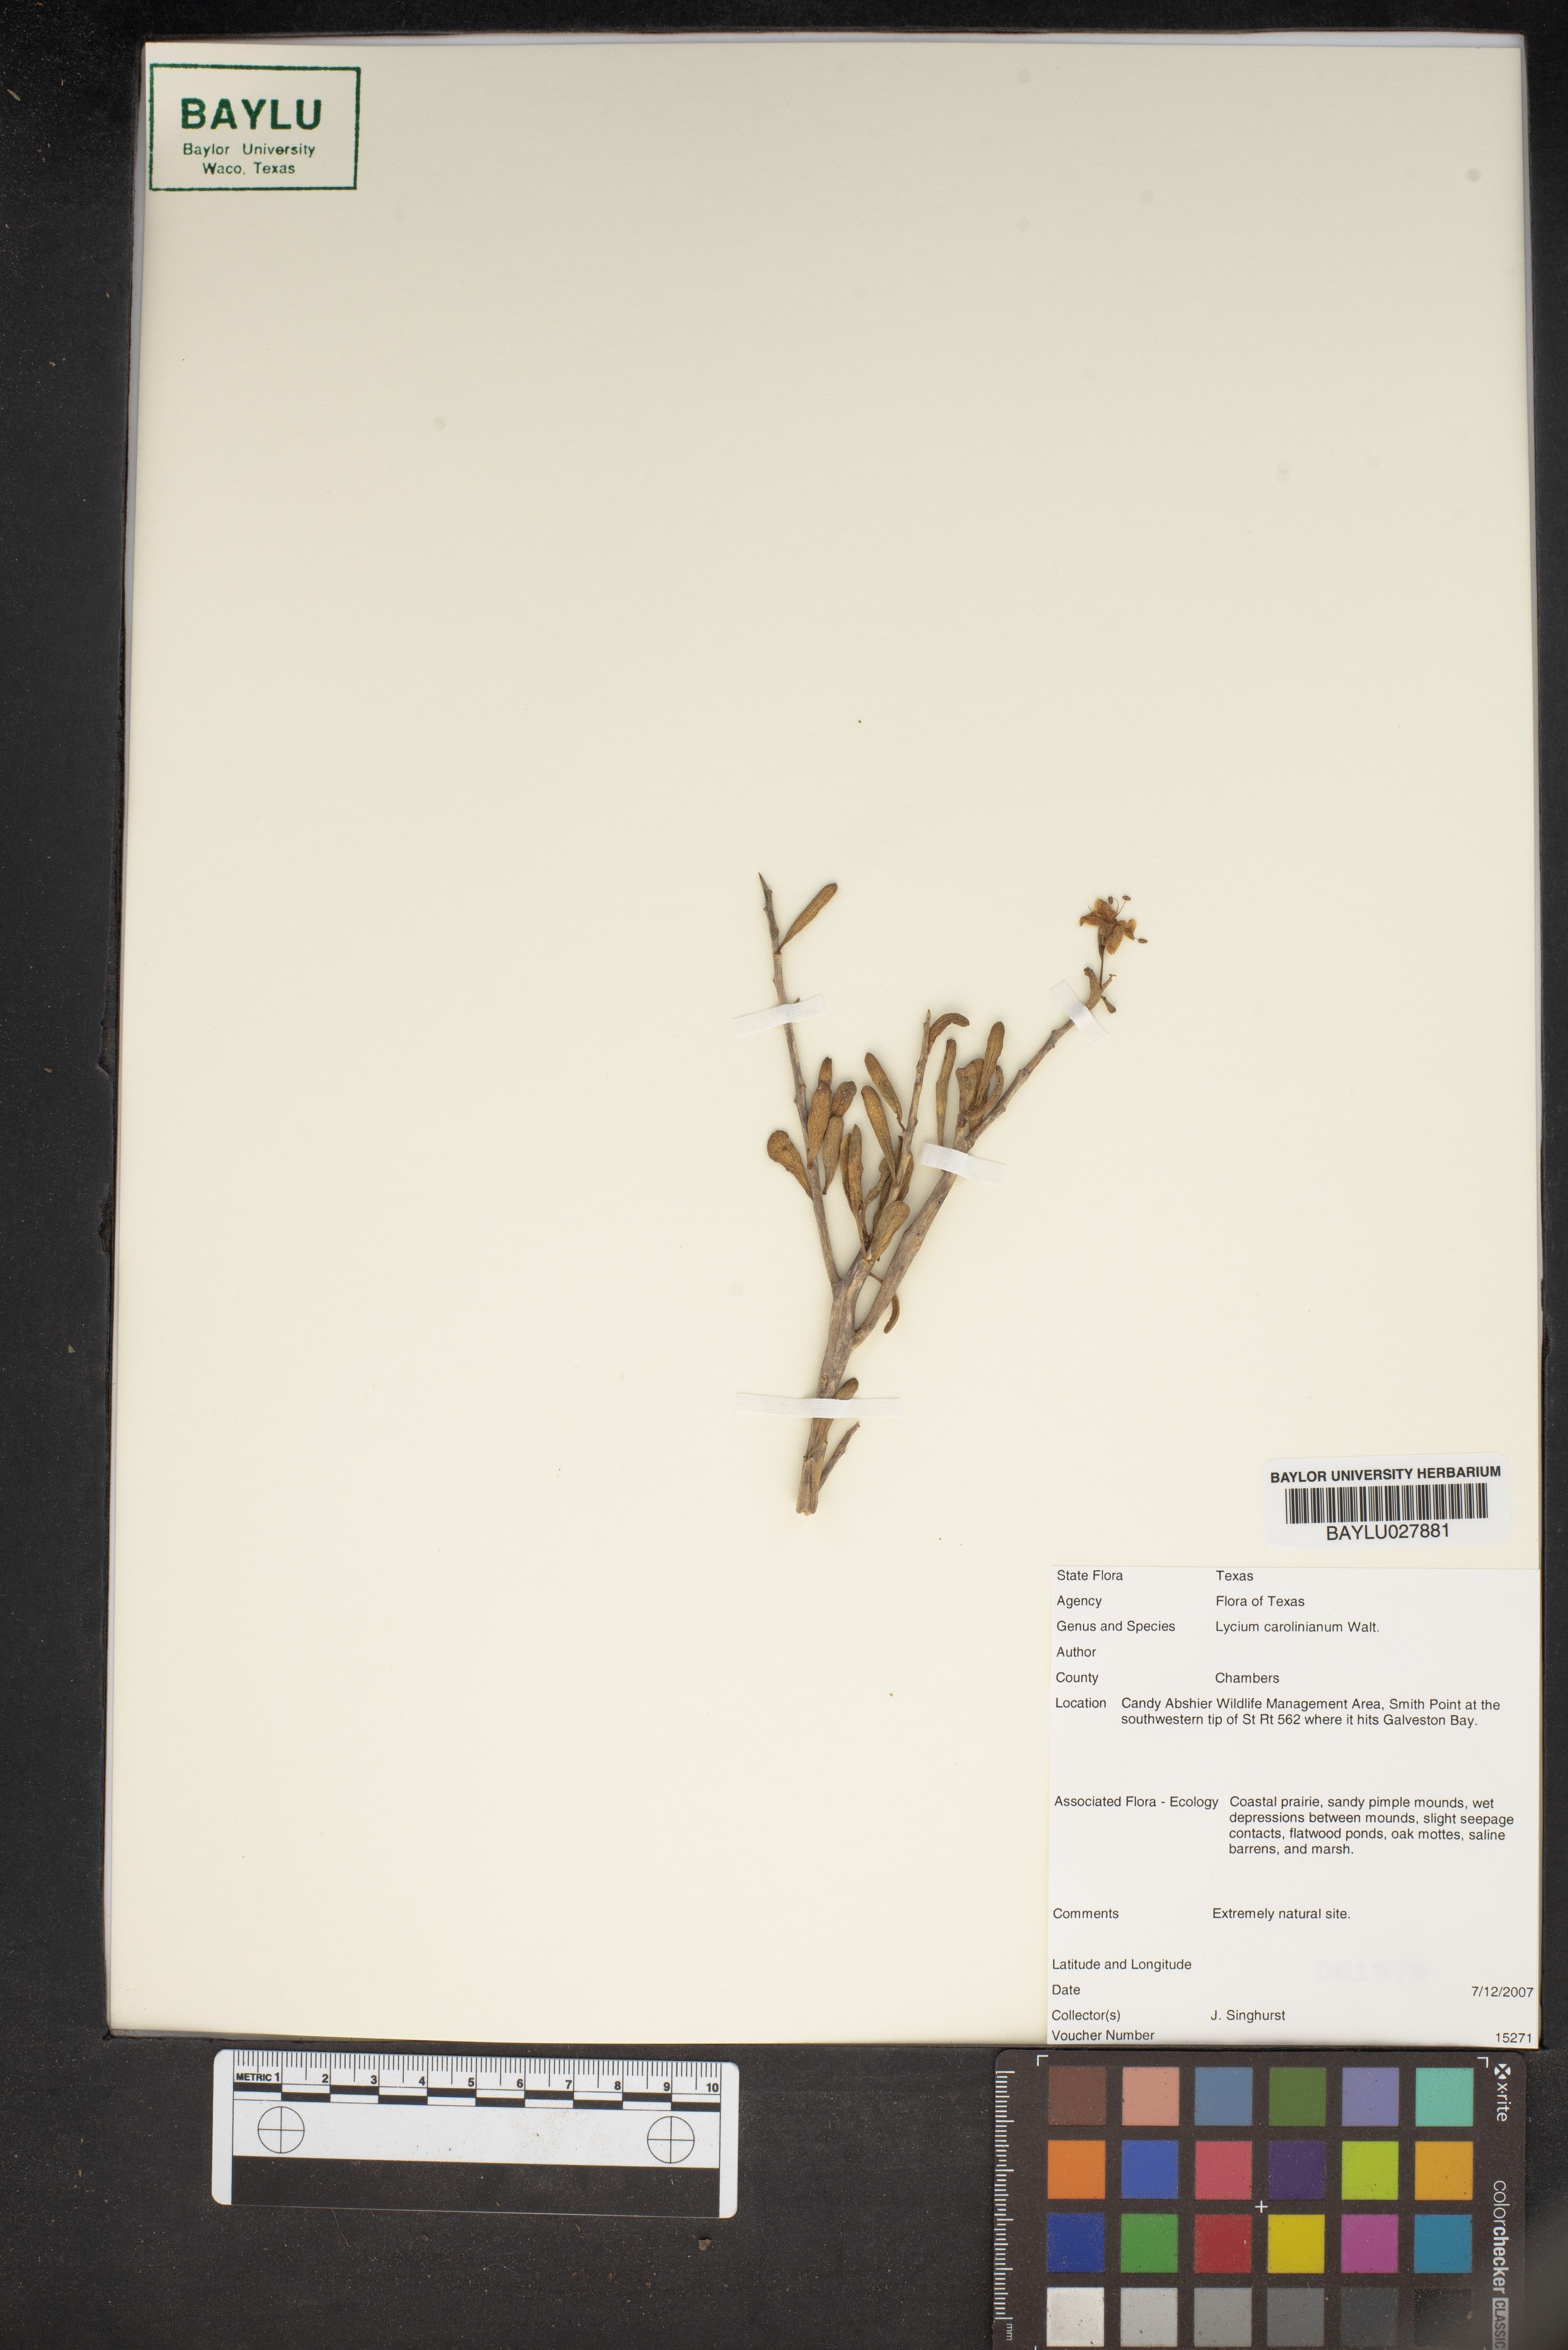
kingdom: Plantae
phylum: Tracheophyta
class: Magnoliopsida
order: Solanales
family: Solanaceae
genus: Lycium
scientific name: Lycium carolinianum
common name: Christmasberry
